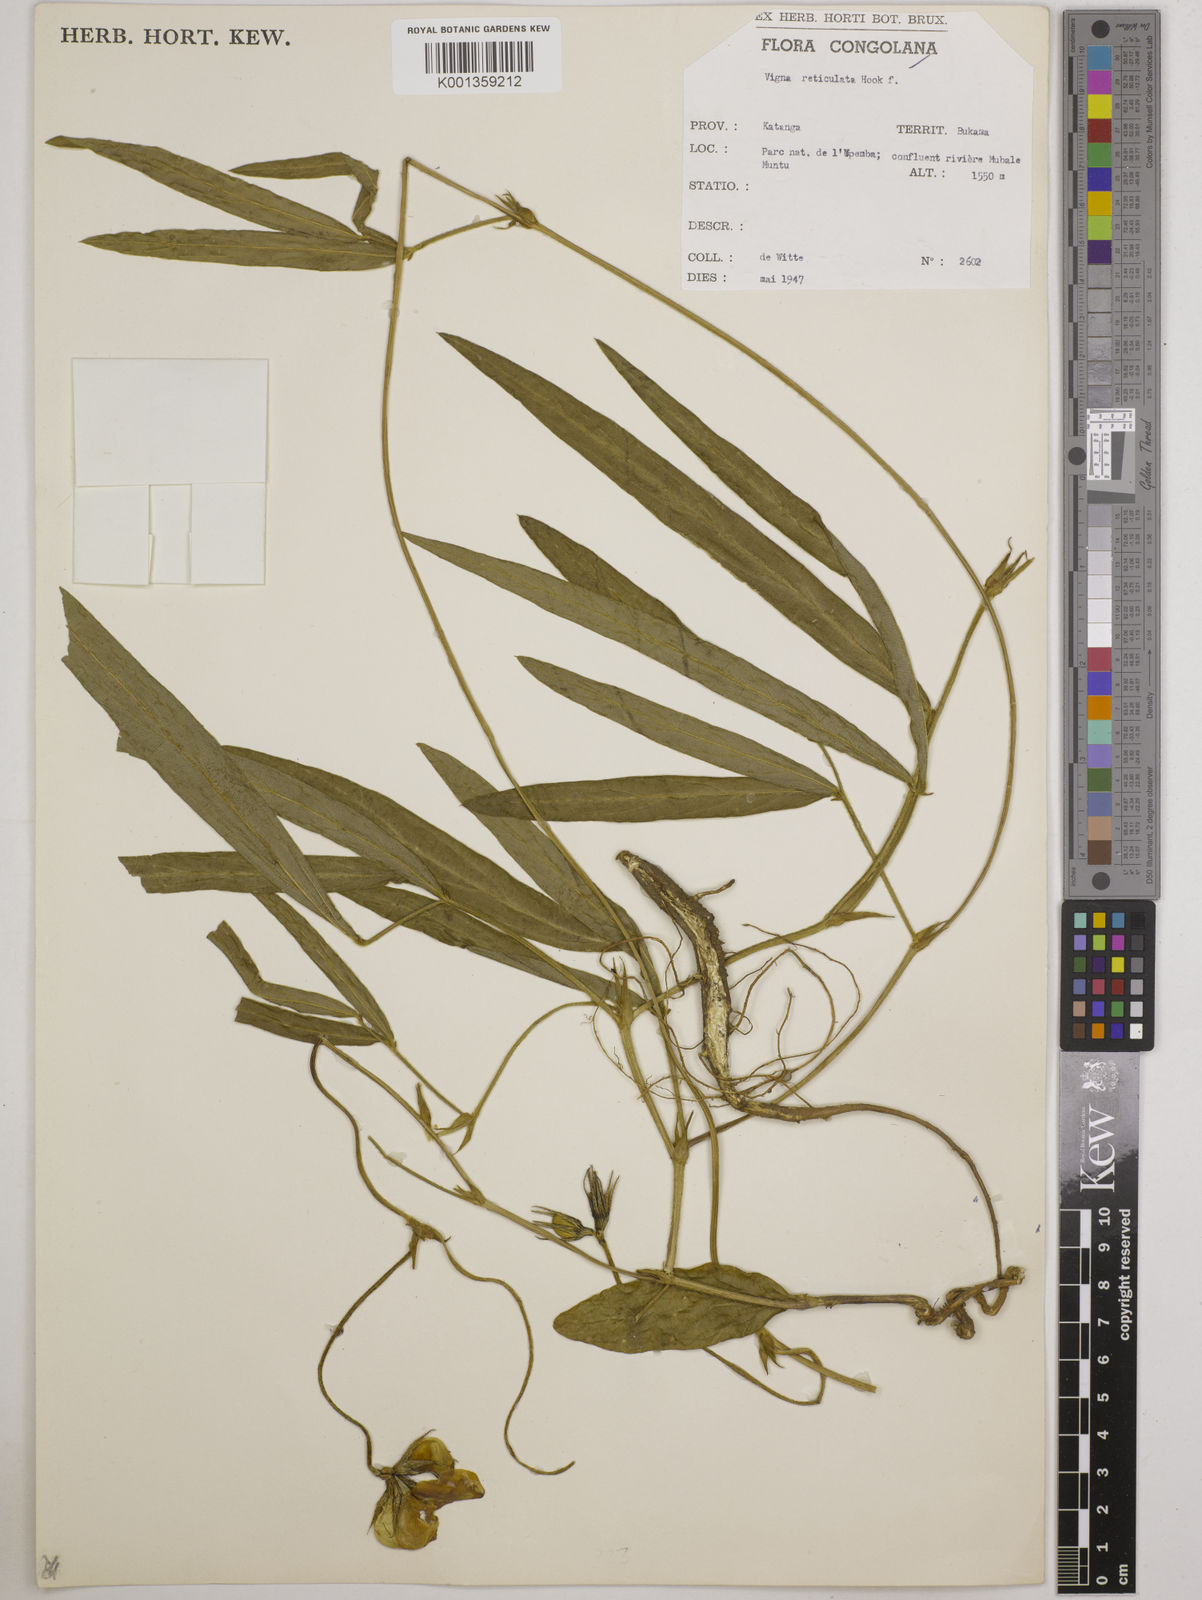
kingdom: Plantae
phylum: Tracheophyta
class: Magnoliopsida
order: Fabales
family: Fabaceae
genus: Vigna
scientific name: Vigna reticulata
